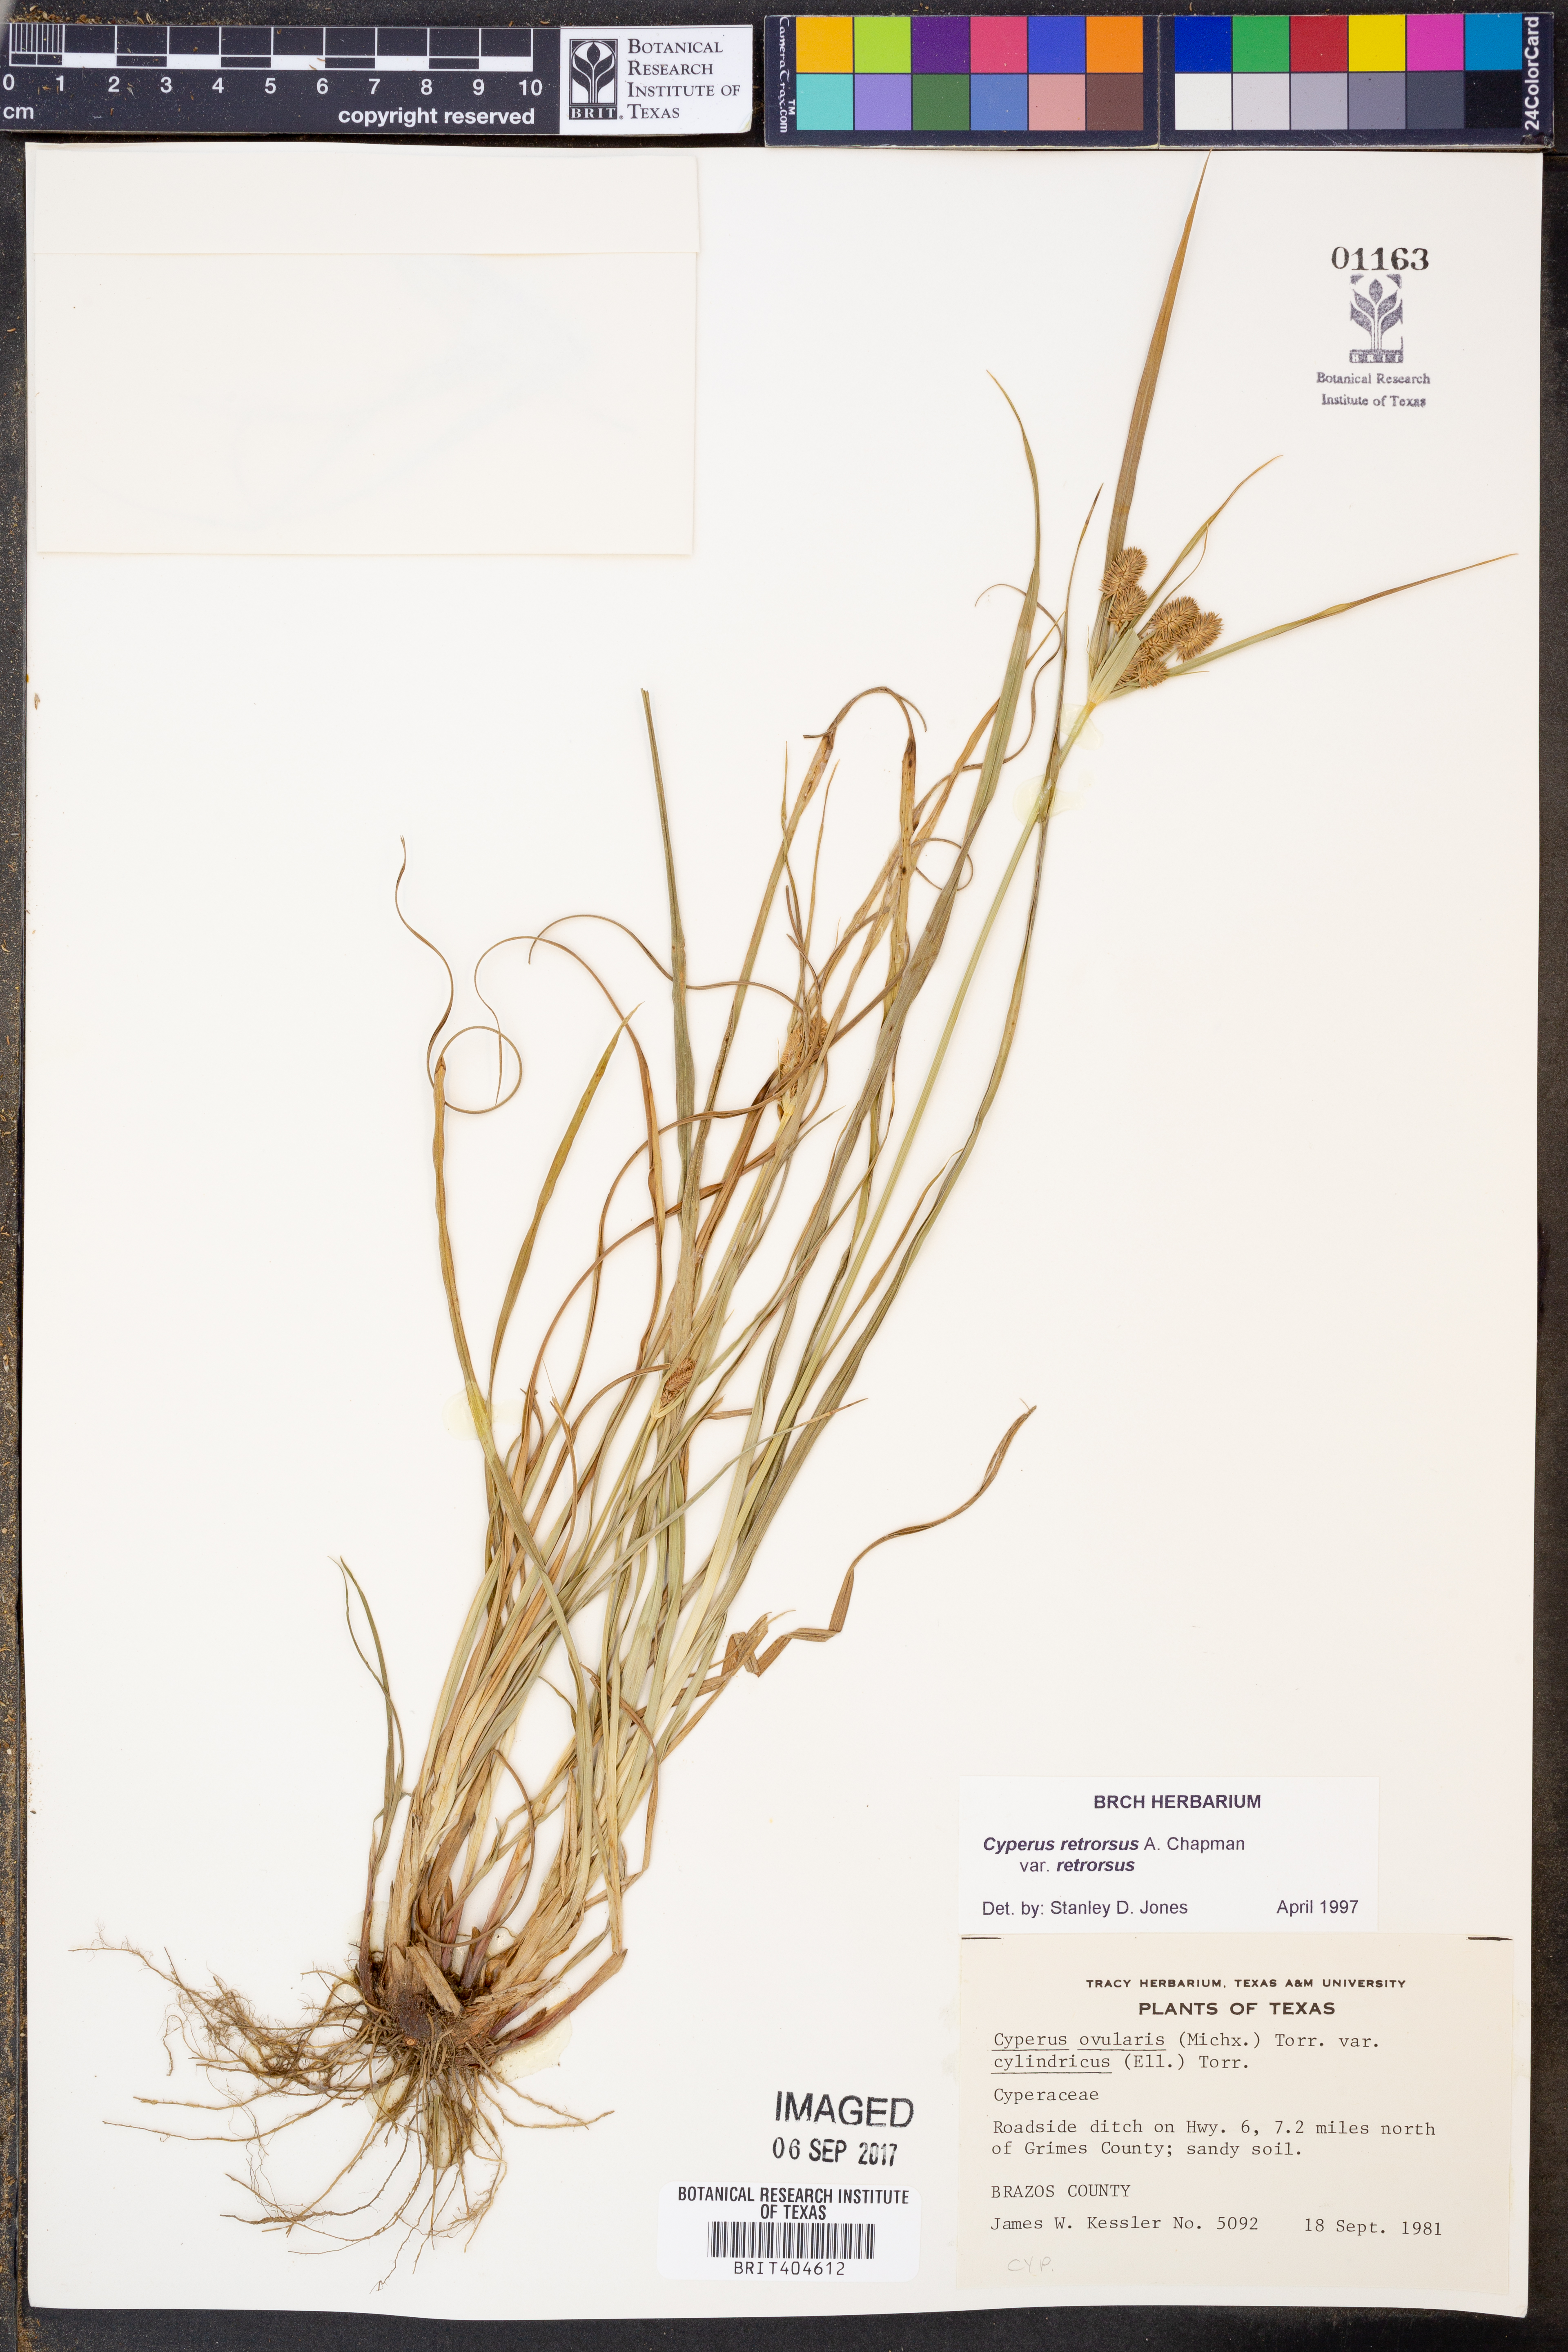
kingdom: Plantae
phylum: Tracheophyta
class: Liliopsida
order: Poales
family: Cyperaceae
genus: Cyperus
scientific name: Cyperus retrorsus
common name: Pinebarren flat sedge
